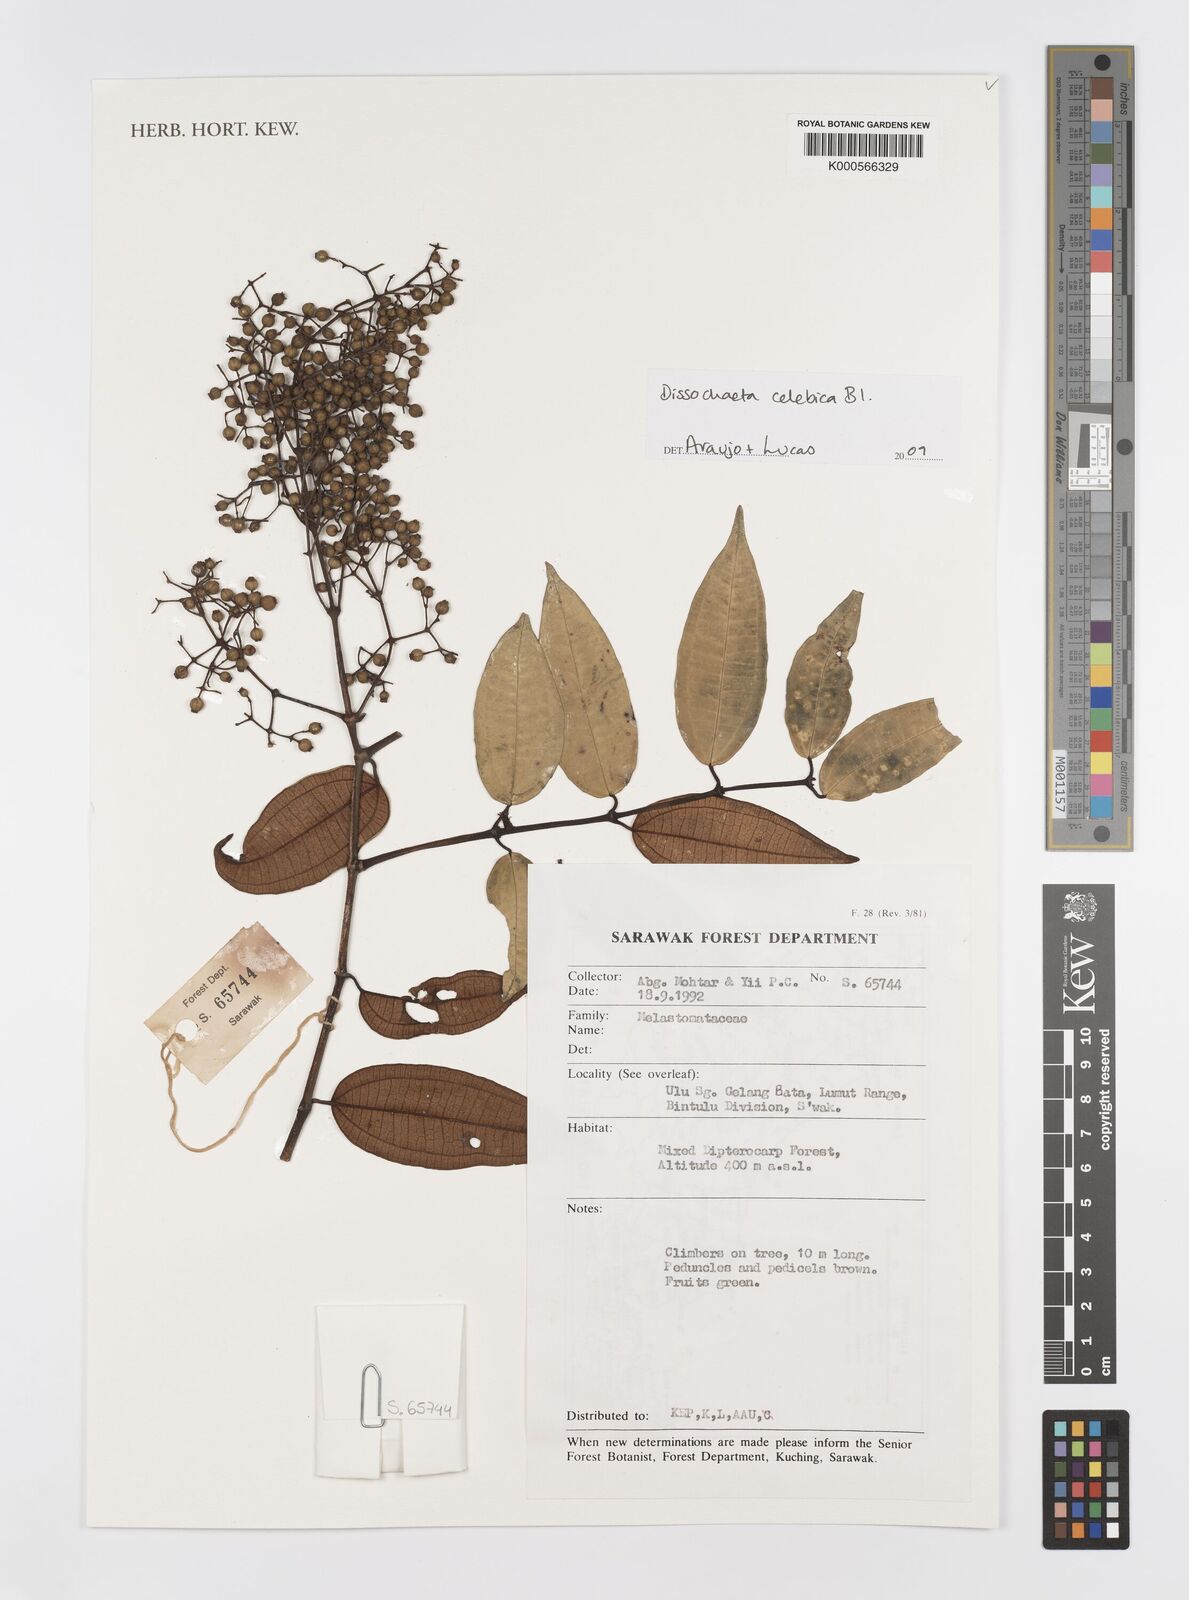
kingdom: Plantae
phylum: Tracheophyta
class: Magnoliopsida
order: Myrtales
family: Melastomataceae
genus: Dissochaeta
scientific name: Dissochaeta celebica
